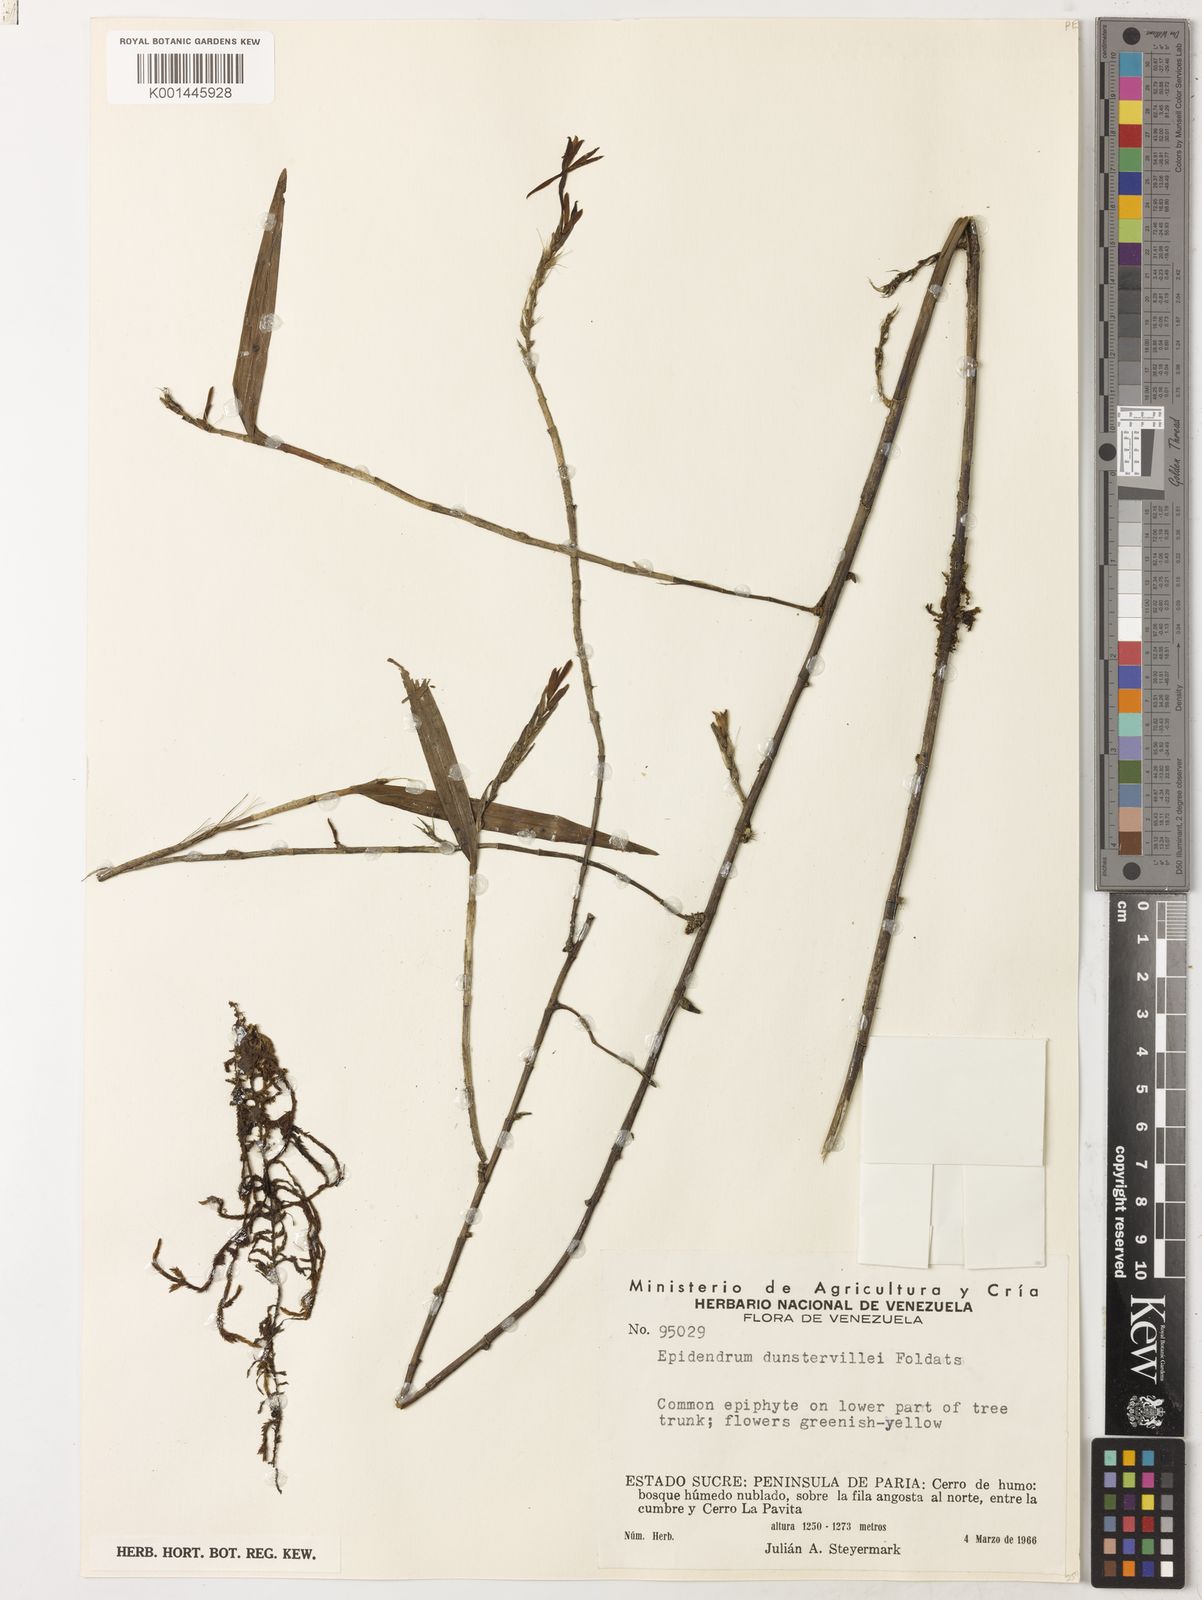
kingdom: Plantae
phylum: Tracheophyta
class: Liliopsida
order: Asparagales
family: Orchidaceae
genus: Epidendrum
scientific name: Epidendrum dunstervilleorum
